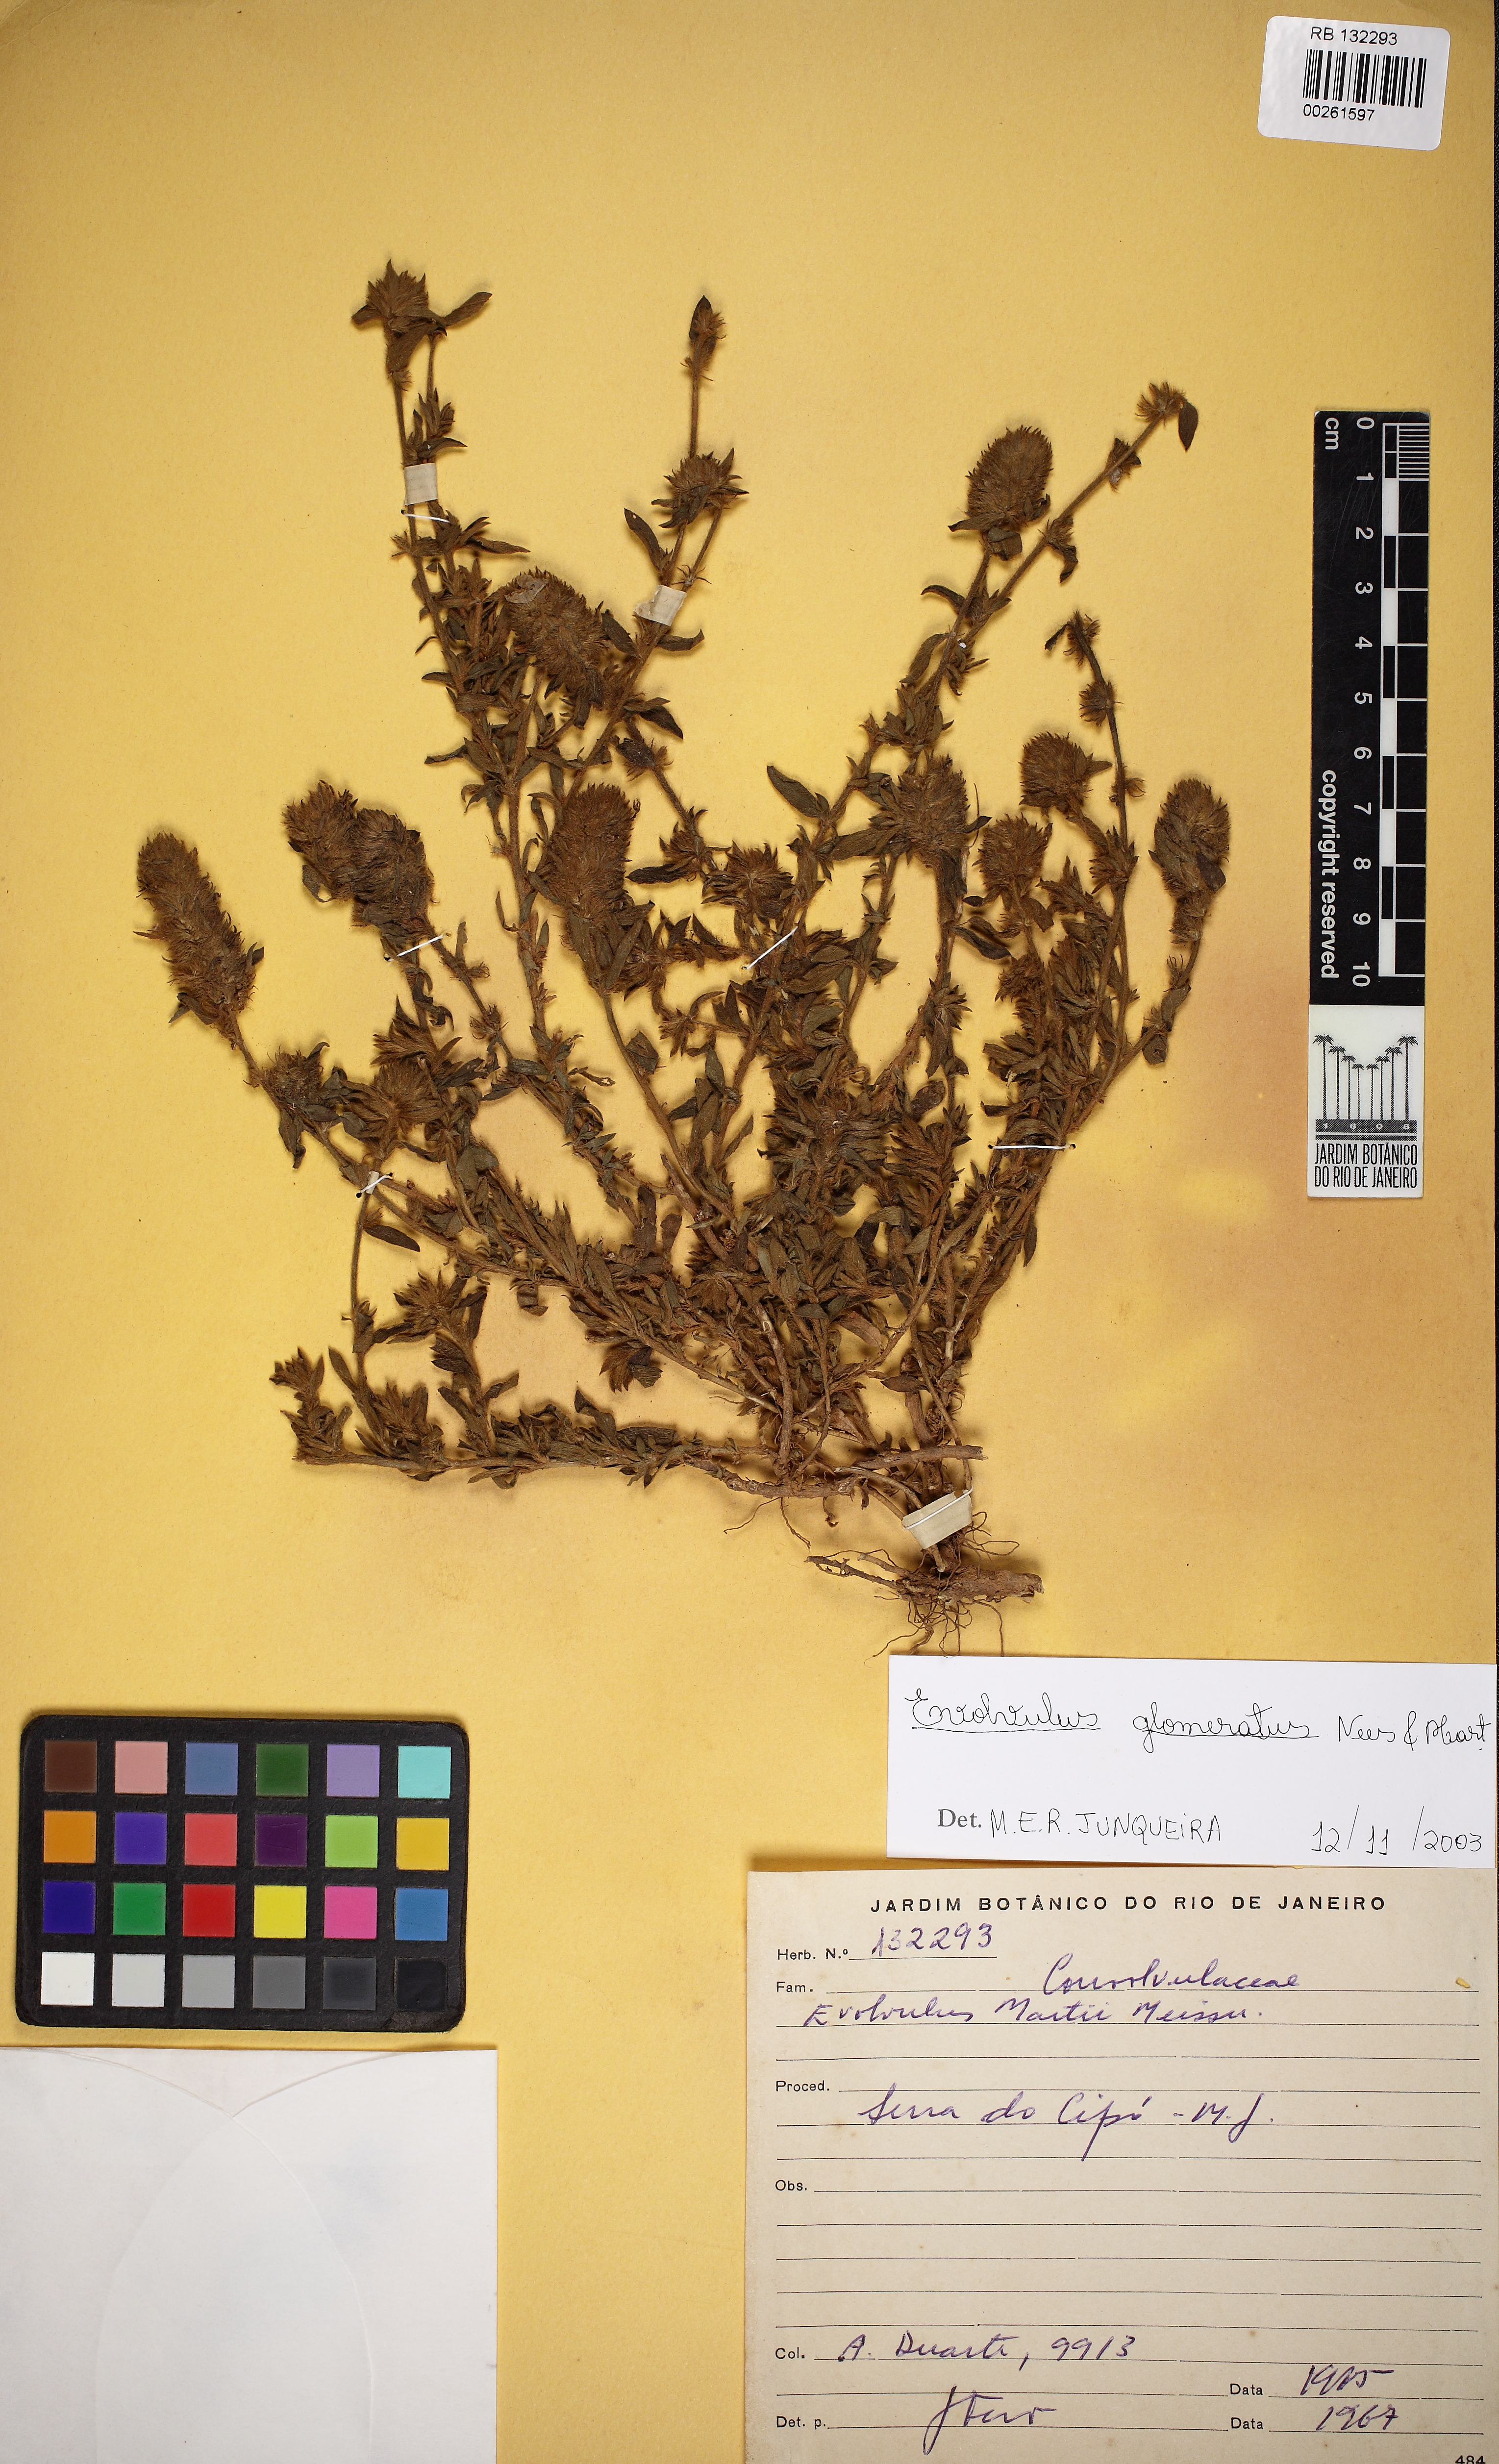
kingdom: Plantae
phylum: Tracheophyta
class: Magnoliopsida
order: Solanales
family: Convolvulaceae
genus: Evolvulus
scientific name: Evolvulus glomeratus
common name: Brazilian dwarf morning-glory
